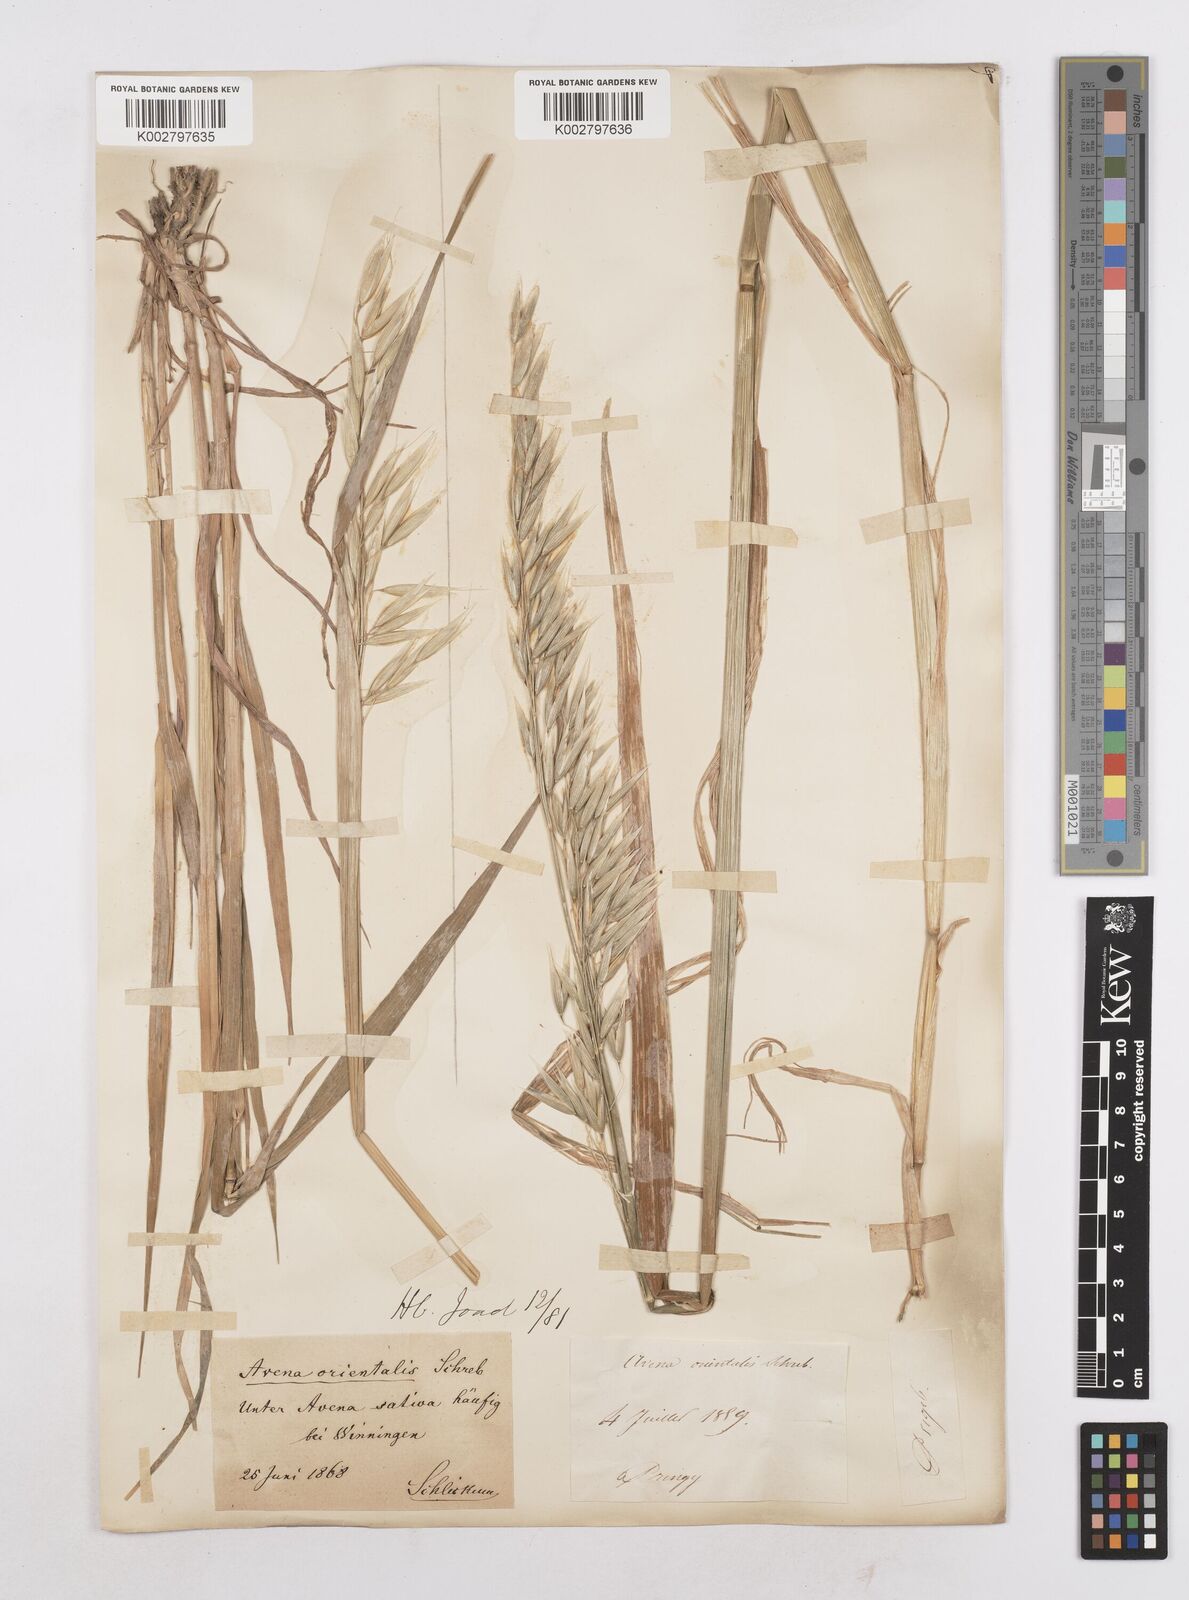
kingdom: Plantae
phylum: Tracheophyta
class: Liliopsida
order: Poales
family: Poaceae
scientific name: Poaceae
